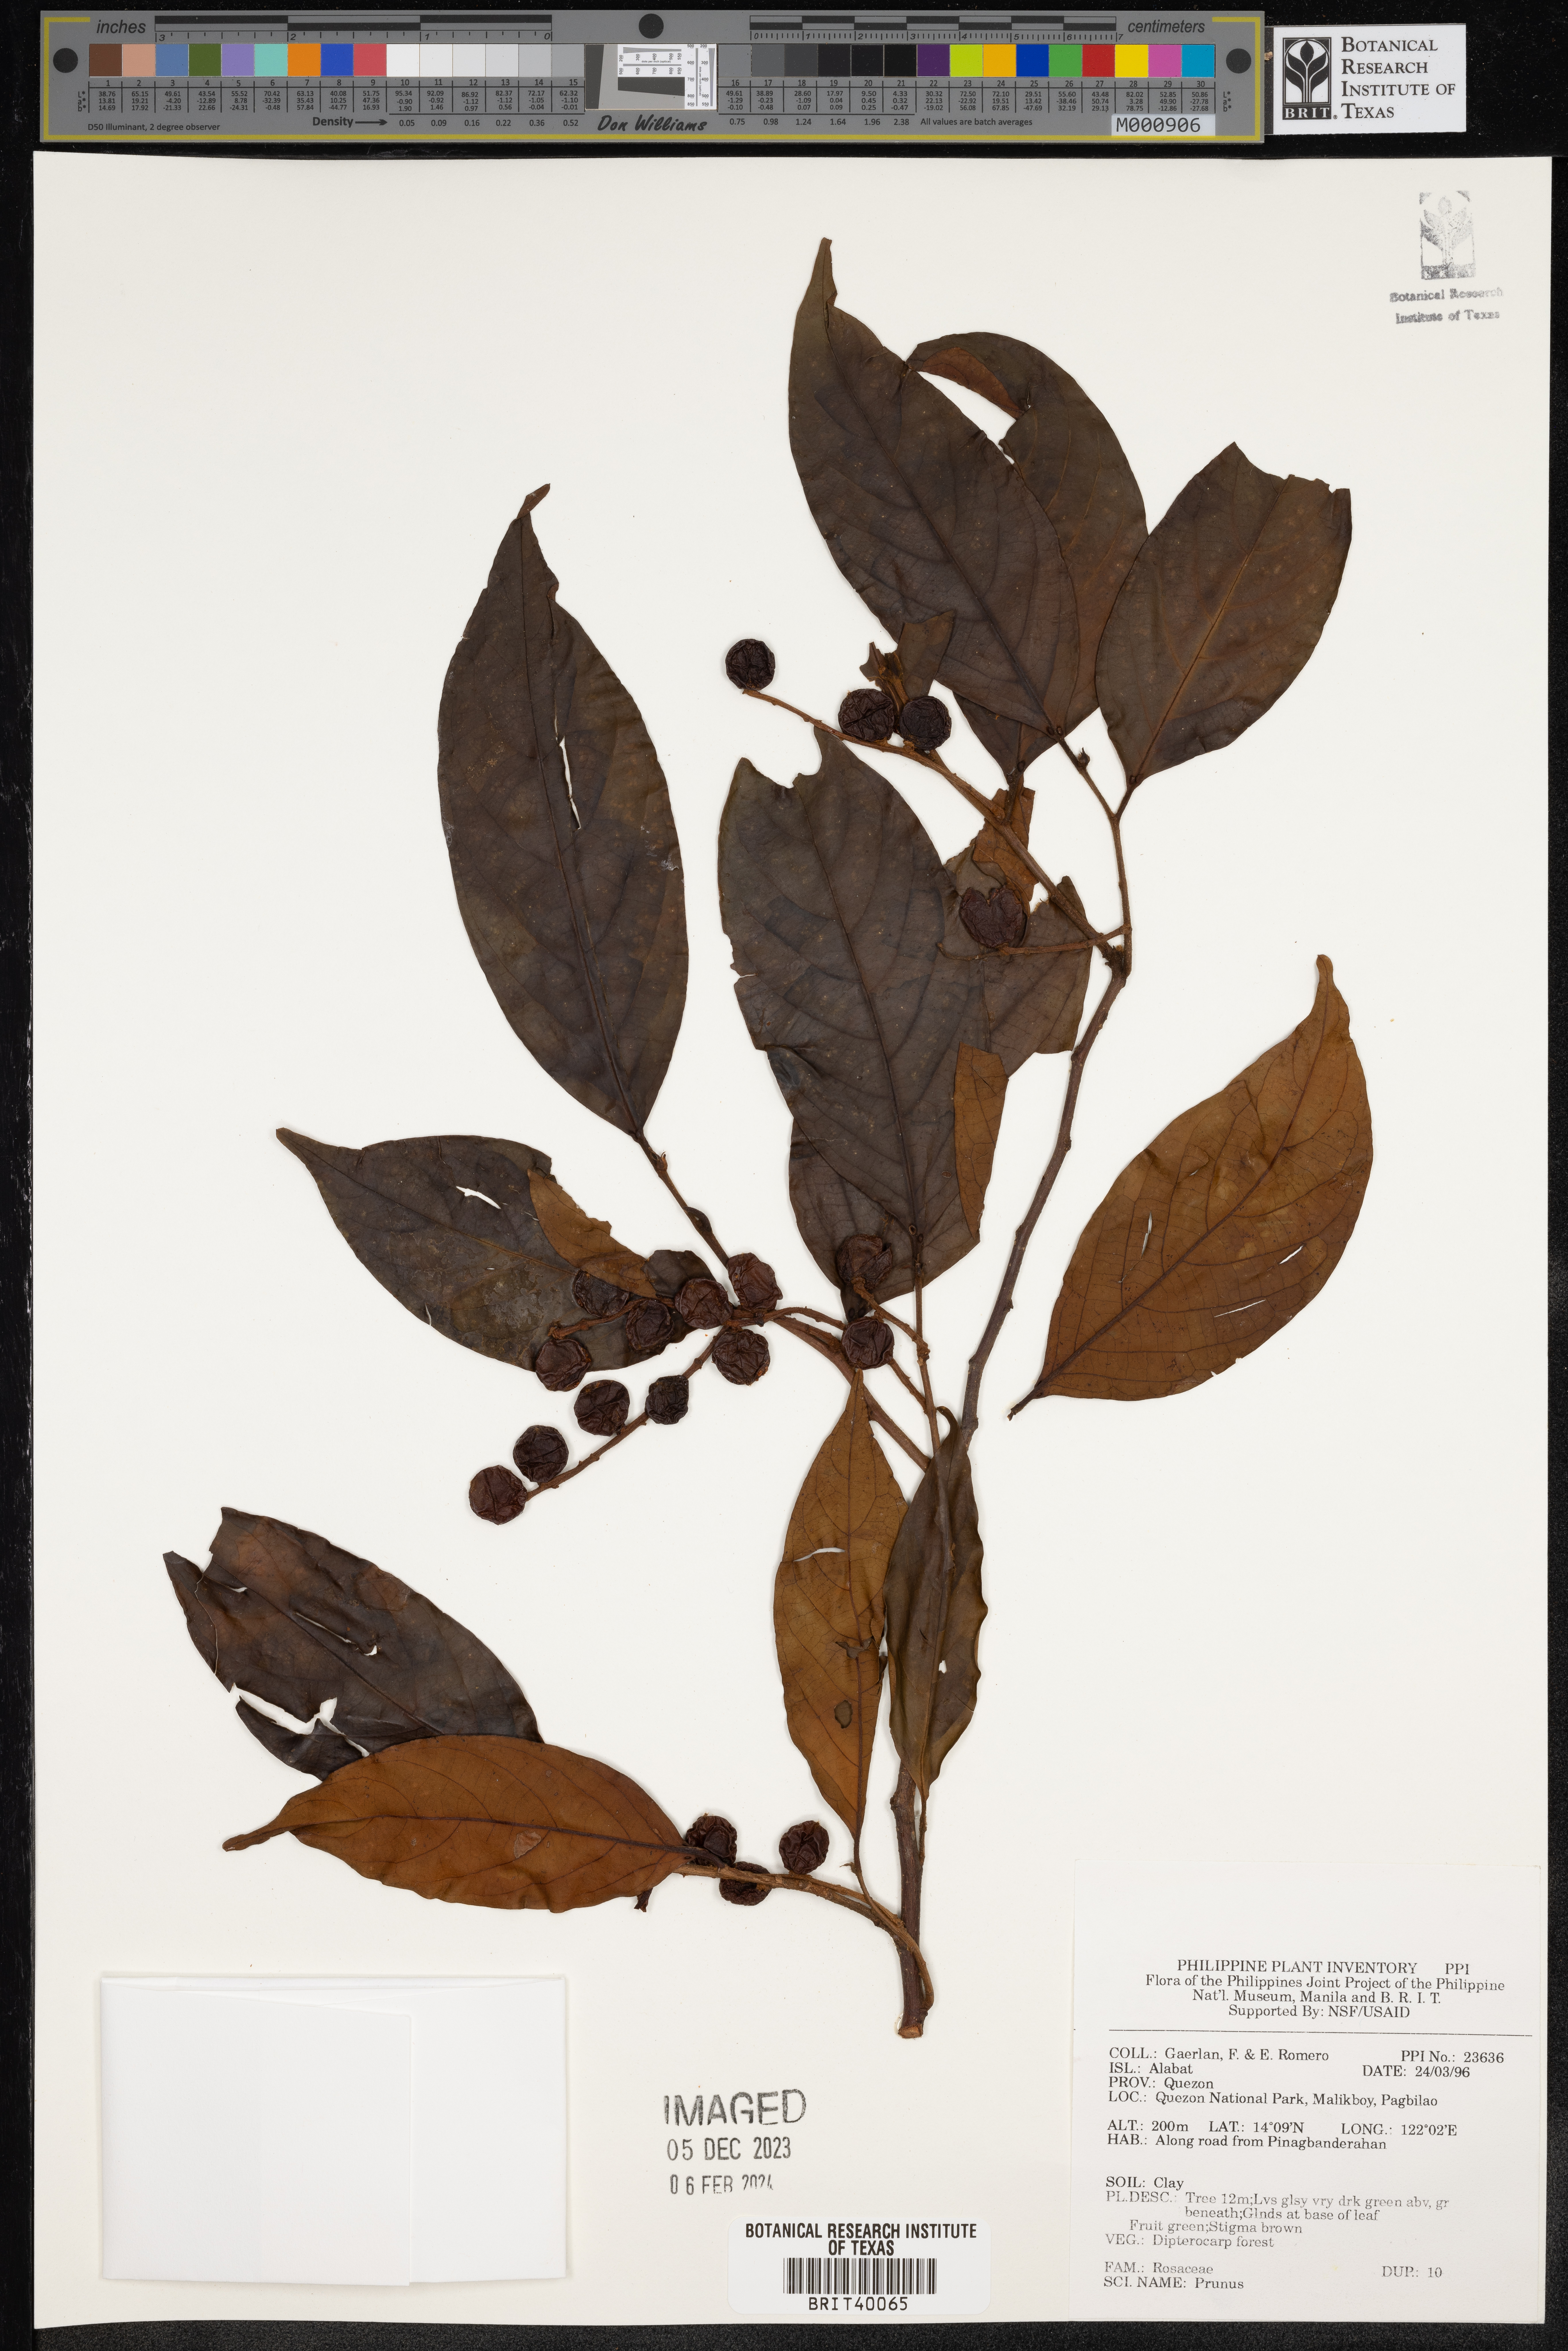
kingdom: Plantae
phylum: Tracheophyta
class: Magnoliopsida
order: Rosales
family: Rosaceae
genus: Prunus
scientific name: Prunus
